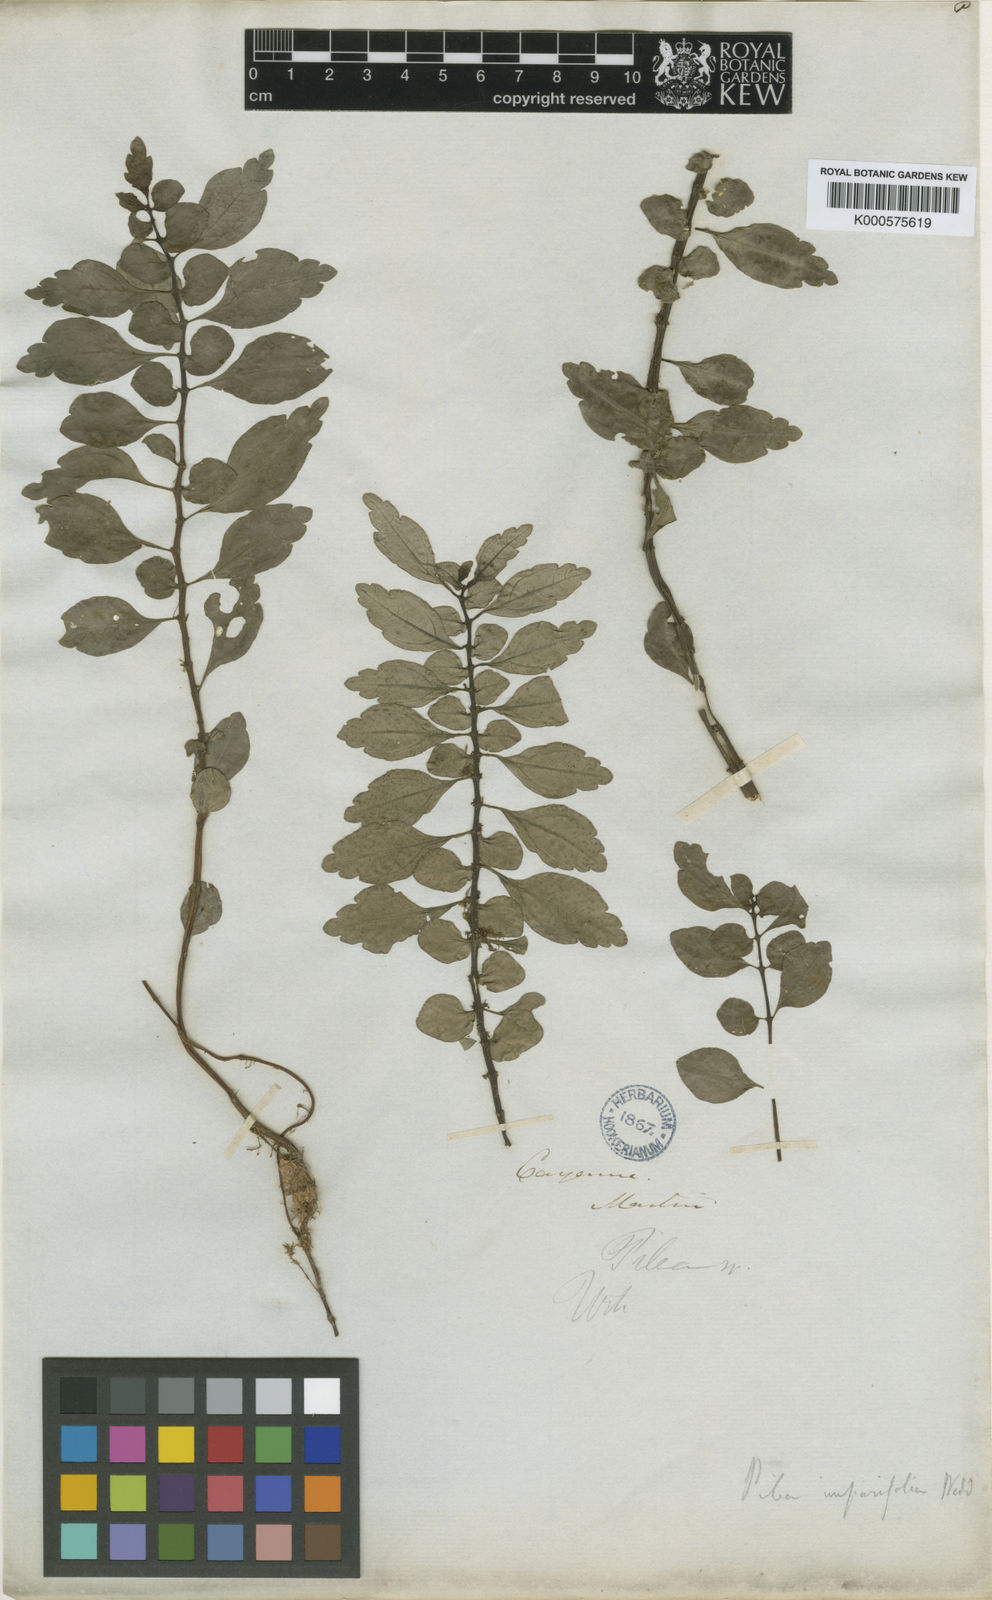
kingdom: Plantae
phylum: Tracheophyta
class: Magnoliopsida
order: Rosales
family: Urticaceae
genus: Pilea
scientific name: Pilea imparifolia
